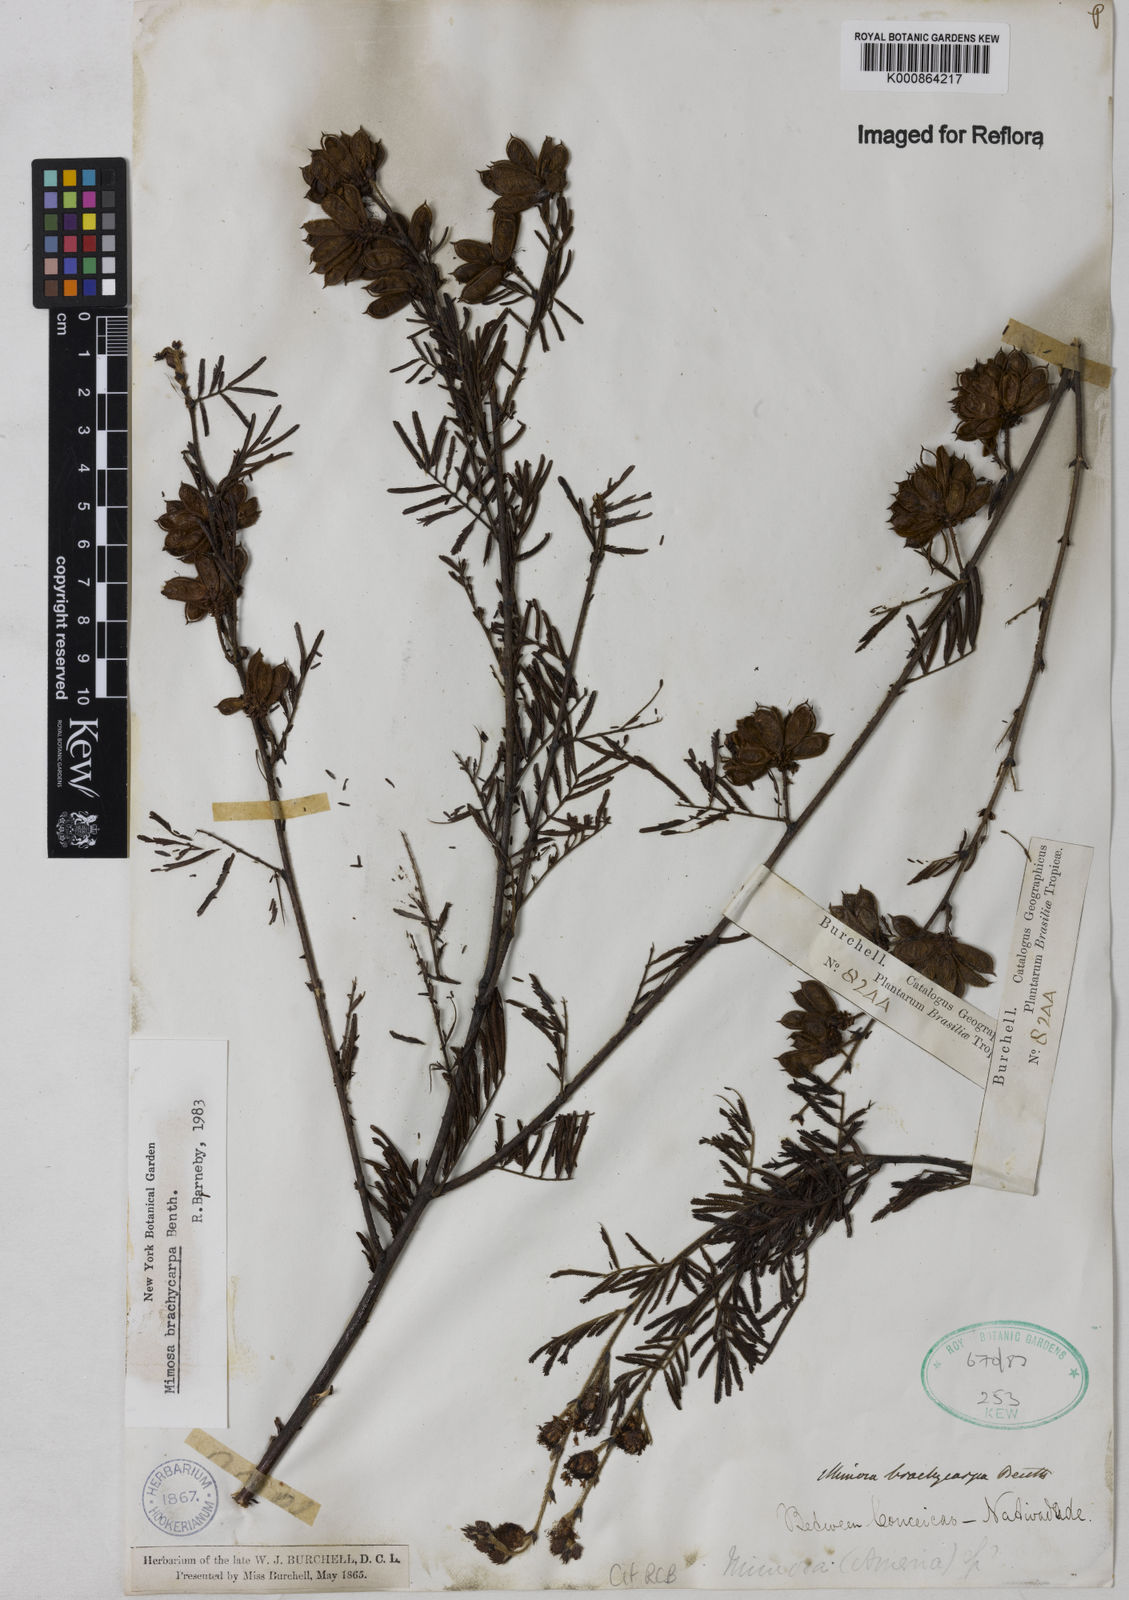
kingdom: Plantae
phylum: Tracheophyta
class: Magnoliopsida
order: Fabales
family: Fabaceae
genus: Mimosa
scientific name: Mimosa brachycarpa
